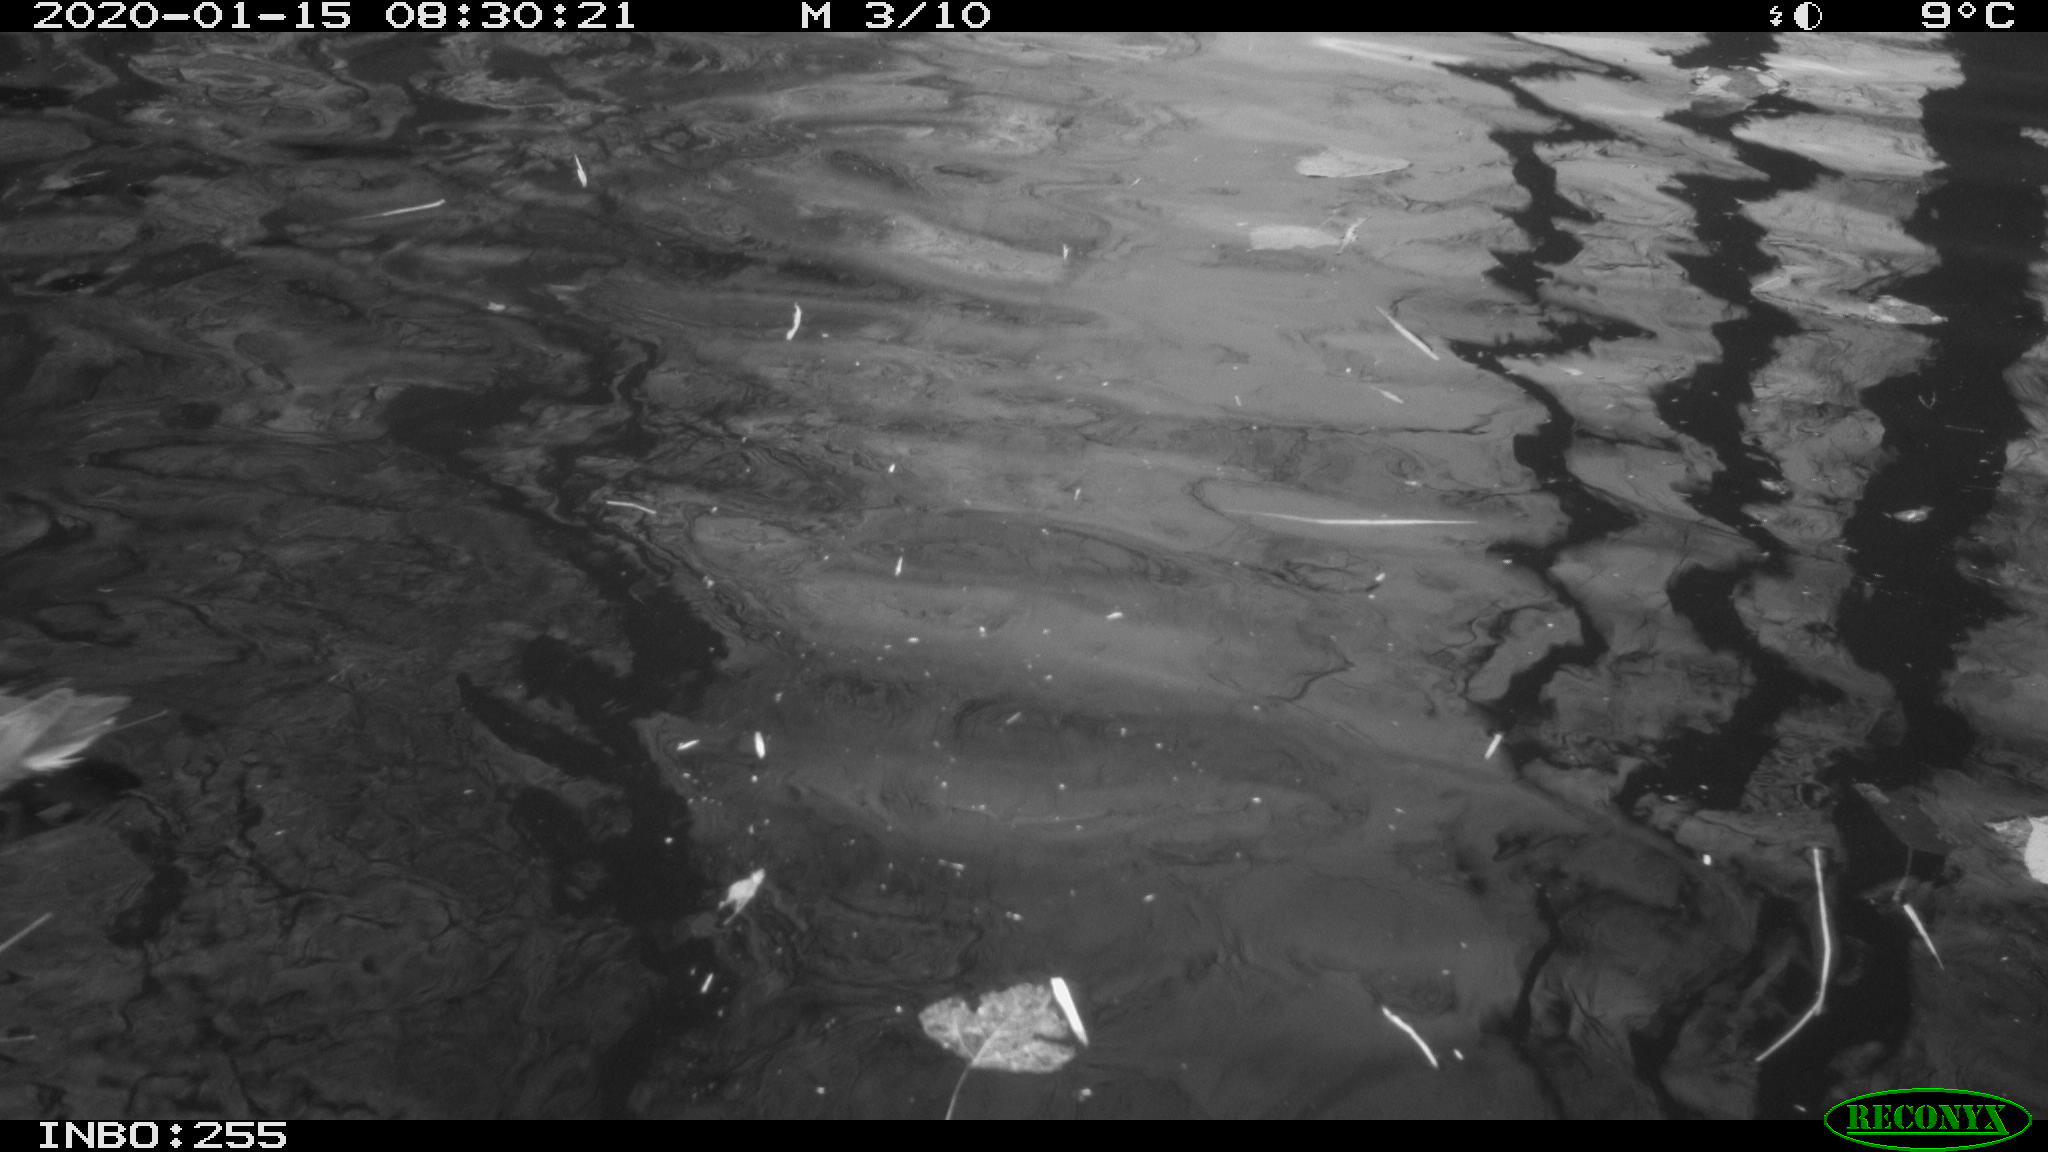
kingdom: Animalia
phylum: Chordata
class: Aves
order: Gruiformes
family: Rallidae
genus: Gallinula
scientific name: Gallinula chloropus
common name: Common moorhen
